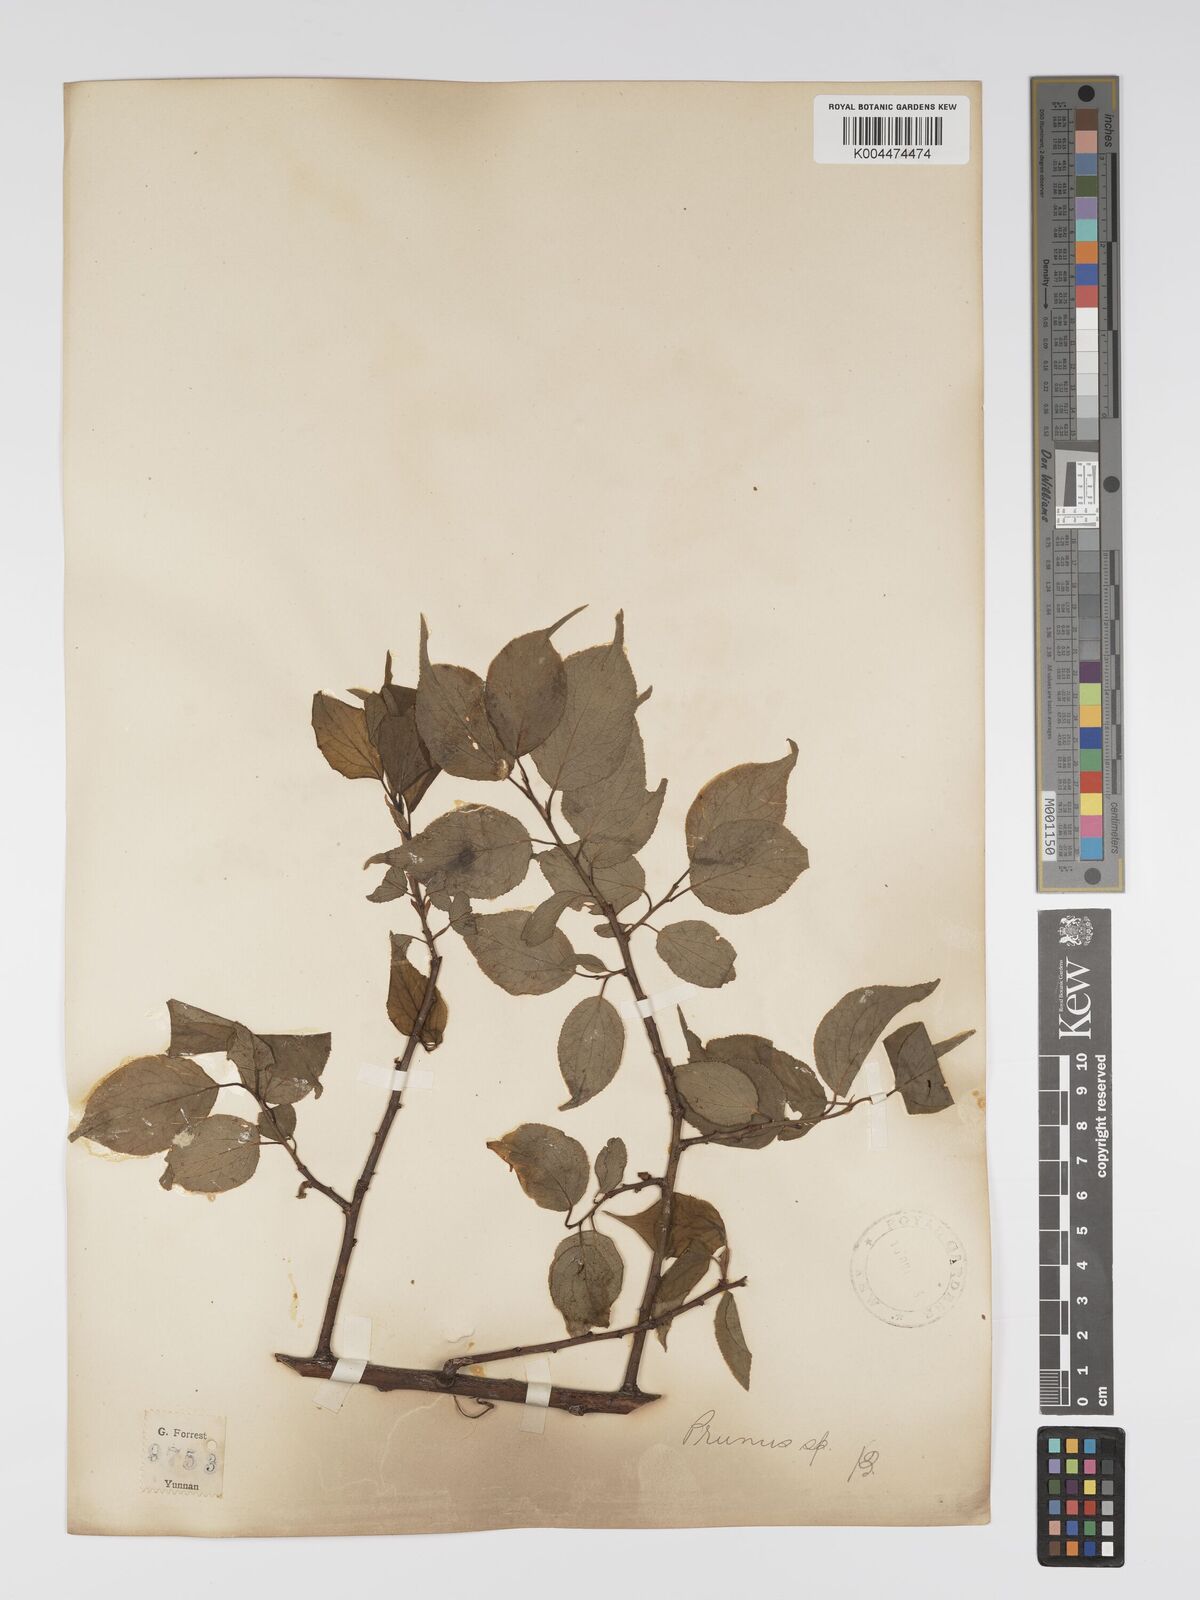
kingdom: Plantae
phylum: Tracheophyta
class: Magnoliopsida
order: Rosales
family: Rosaceae
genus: Prunus
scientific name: Prunus
